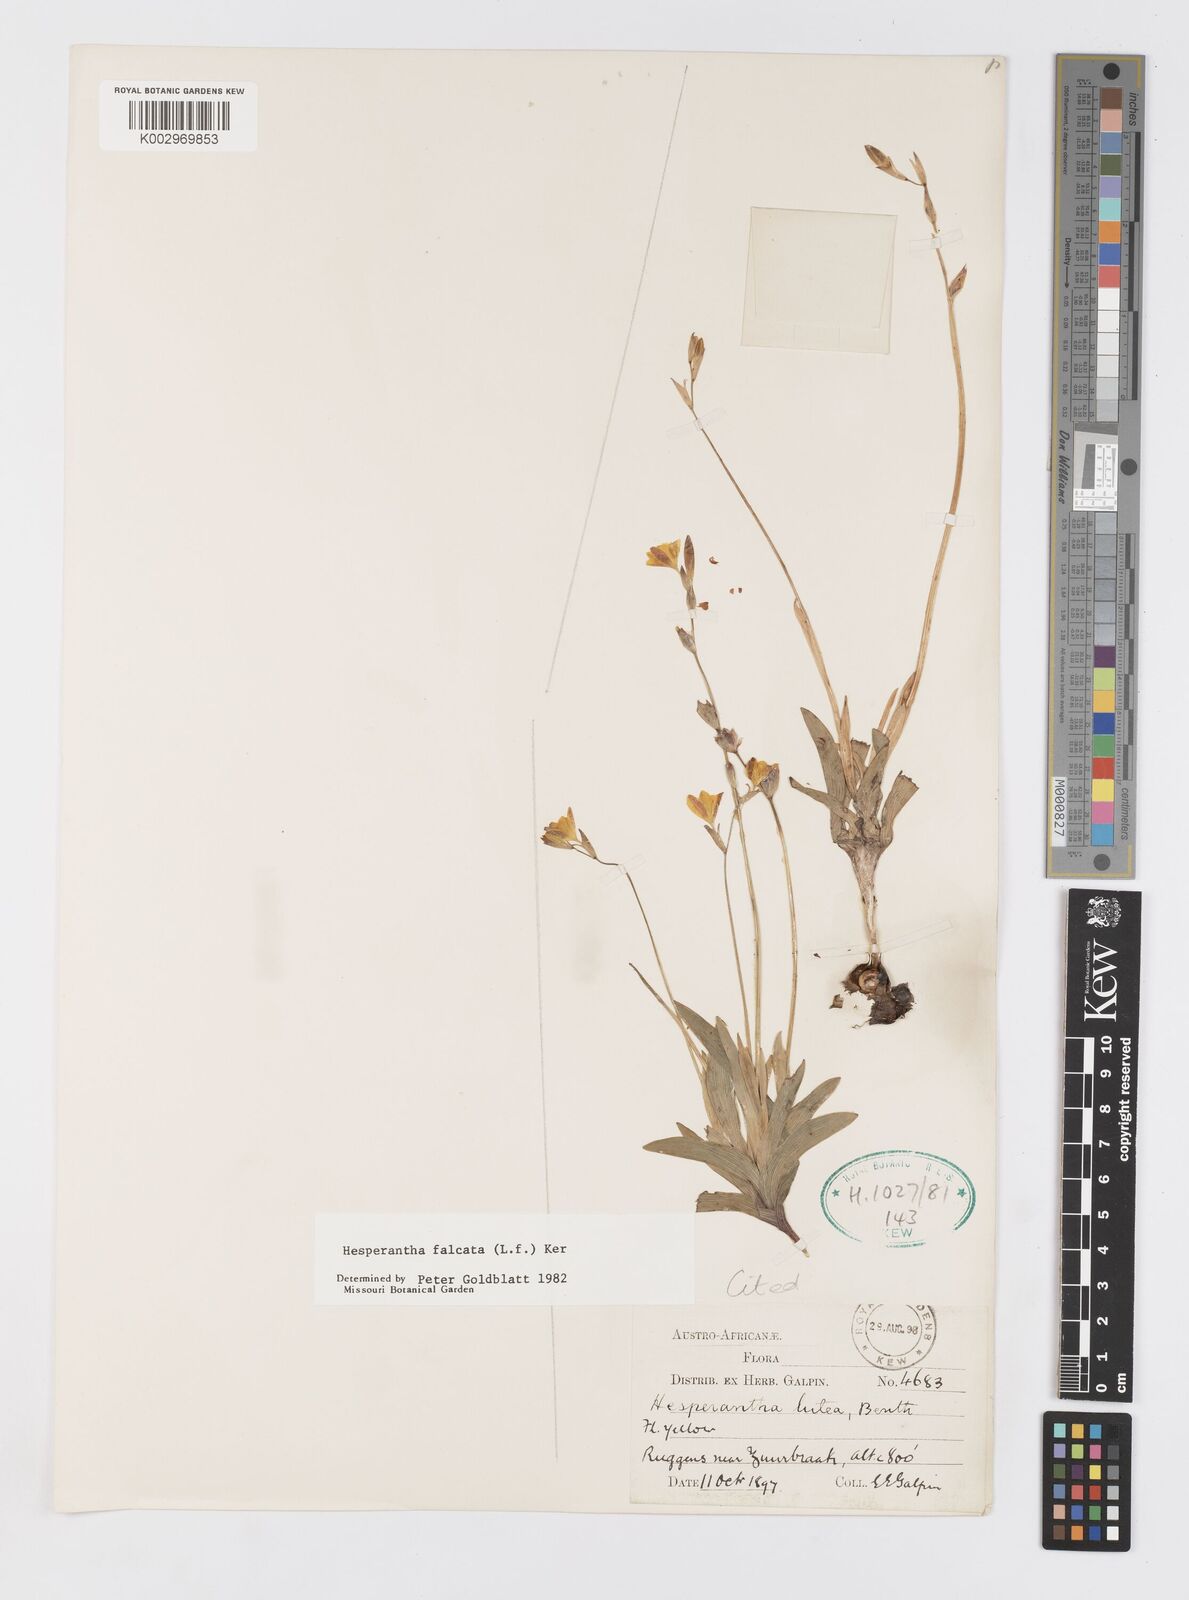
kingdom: Plantae
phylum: Tracheophyta
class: Liliopsida
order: Asparagales
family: Iridaceae
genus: Hesperantha
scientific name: Hesperantha falcata
